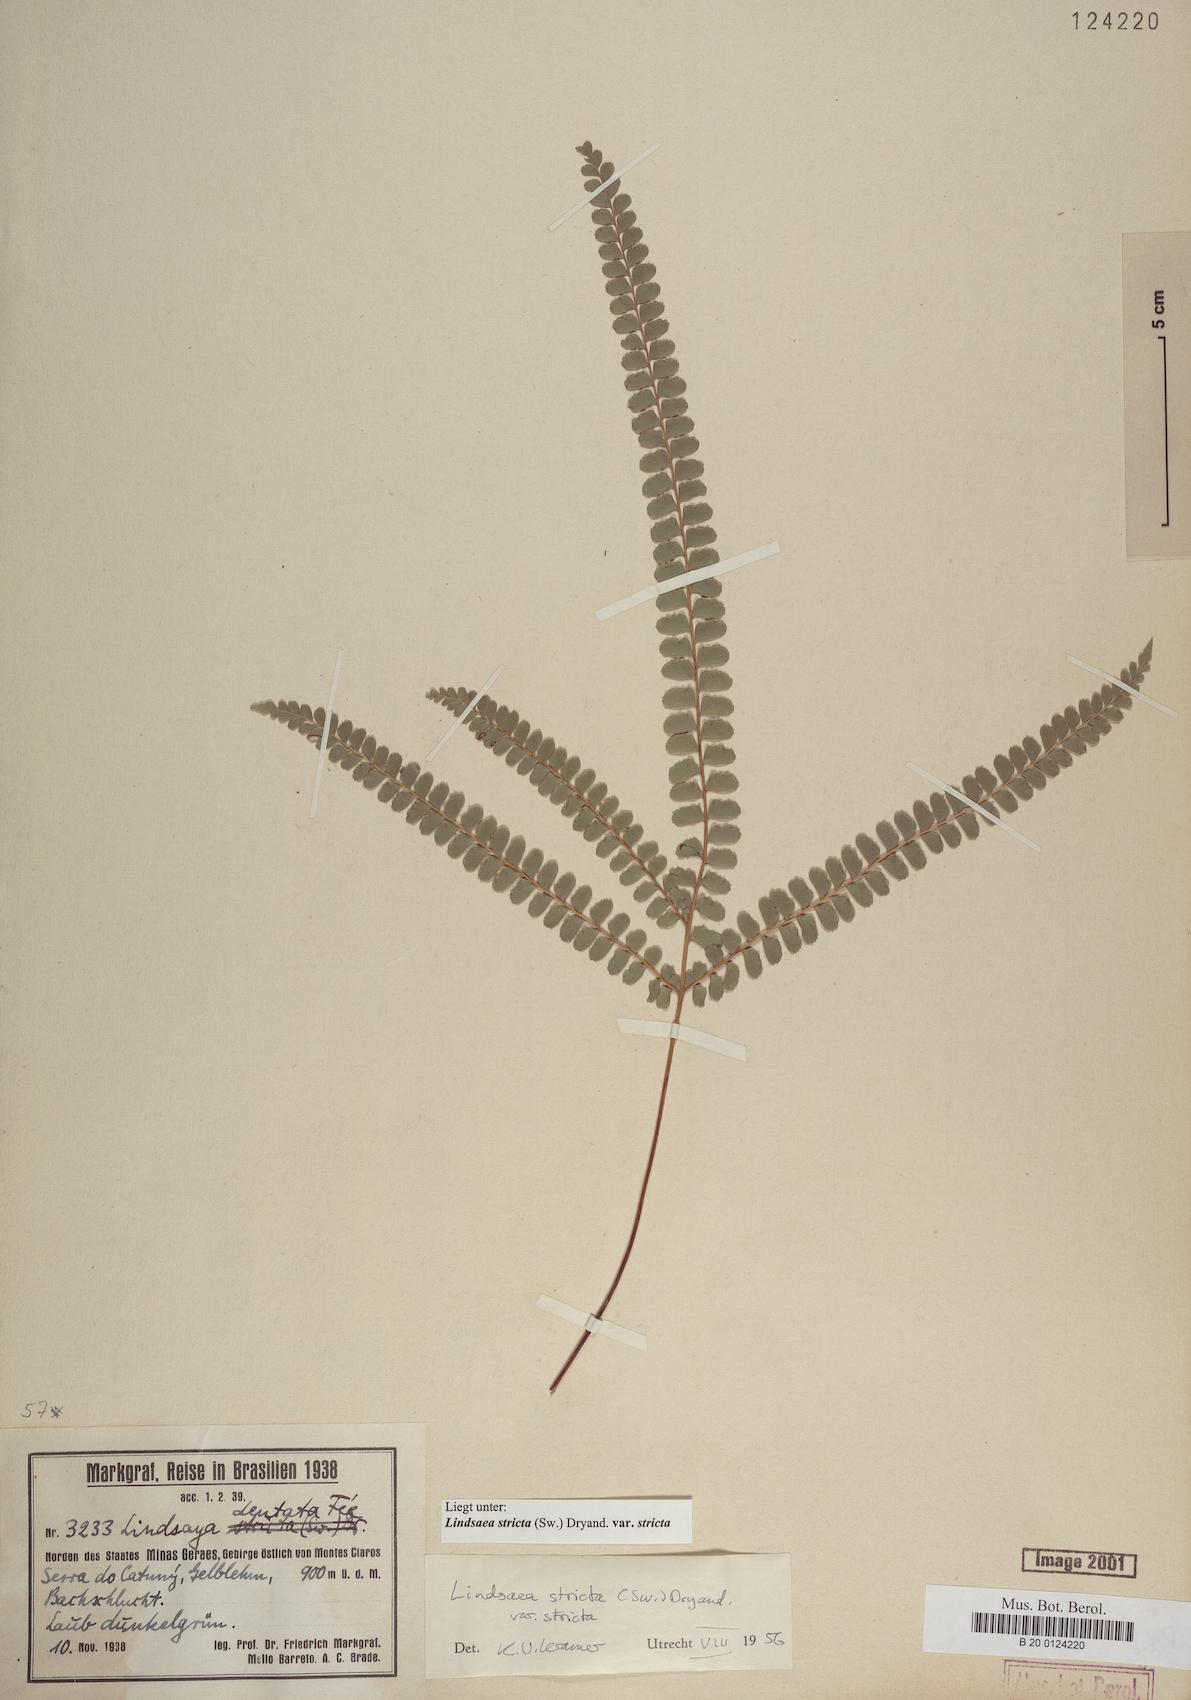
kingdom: Plantae
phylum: Tracheophyta
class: Polypodiopsida
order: Polypodiales
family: Lindsaeaceae
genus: Lindsaea
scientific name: Lindsaea stricta
